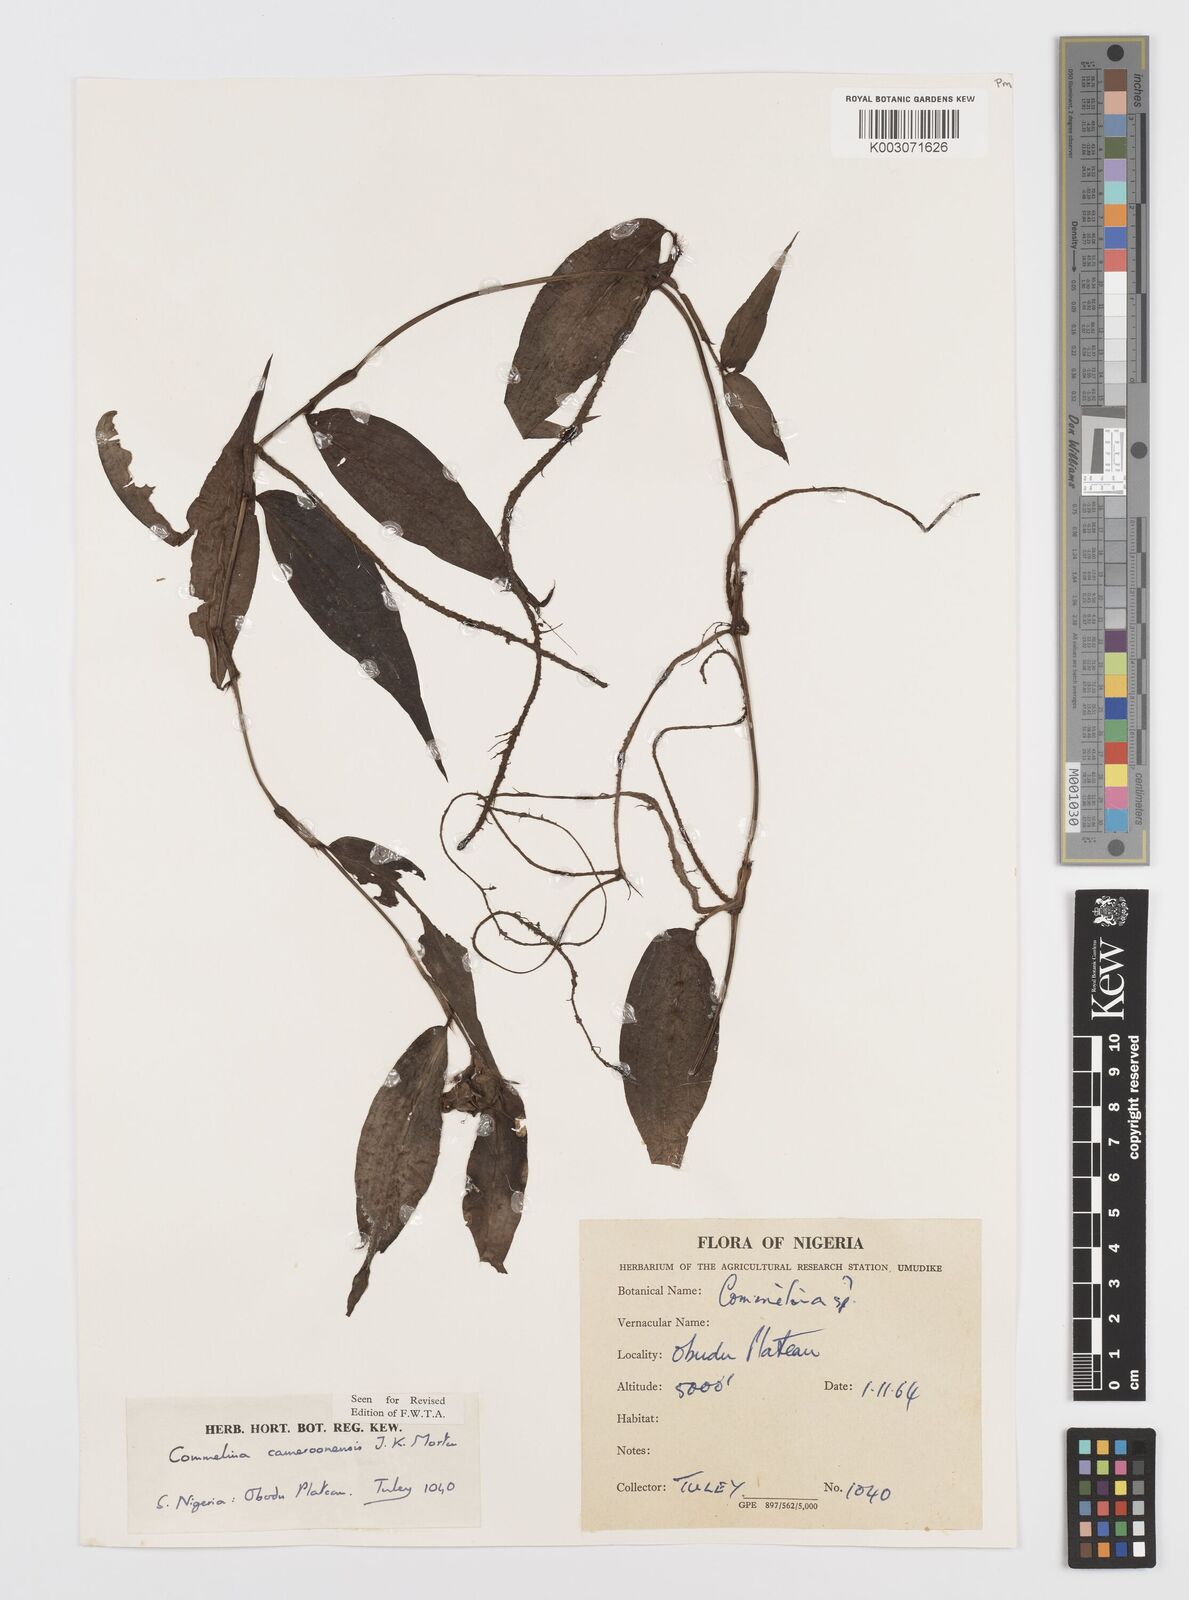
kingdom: Plantae
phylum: Tracheophyta
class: Liliopsida
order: Commelinales
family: Commelinaceae
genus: Commelina
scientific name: Commelina cameroonensis
